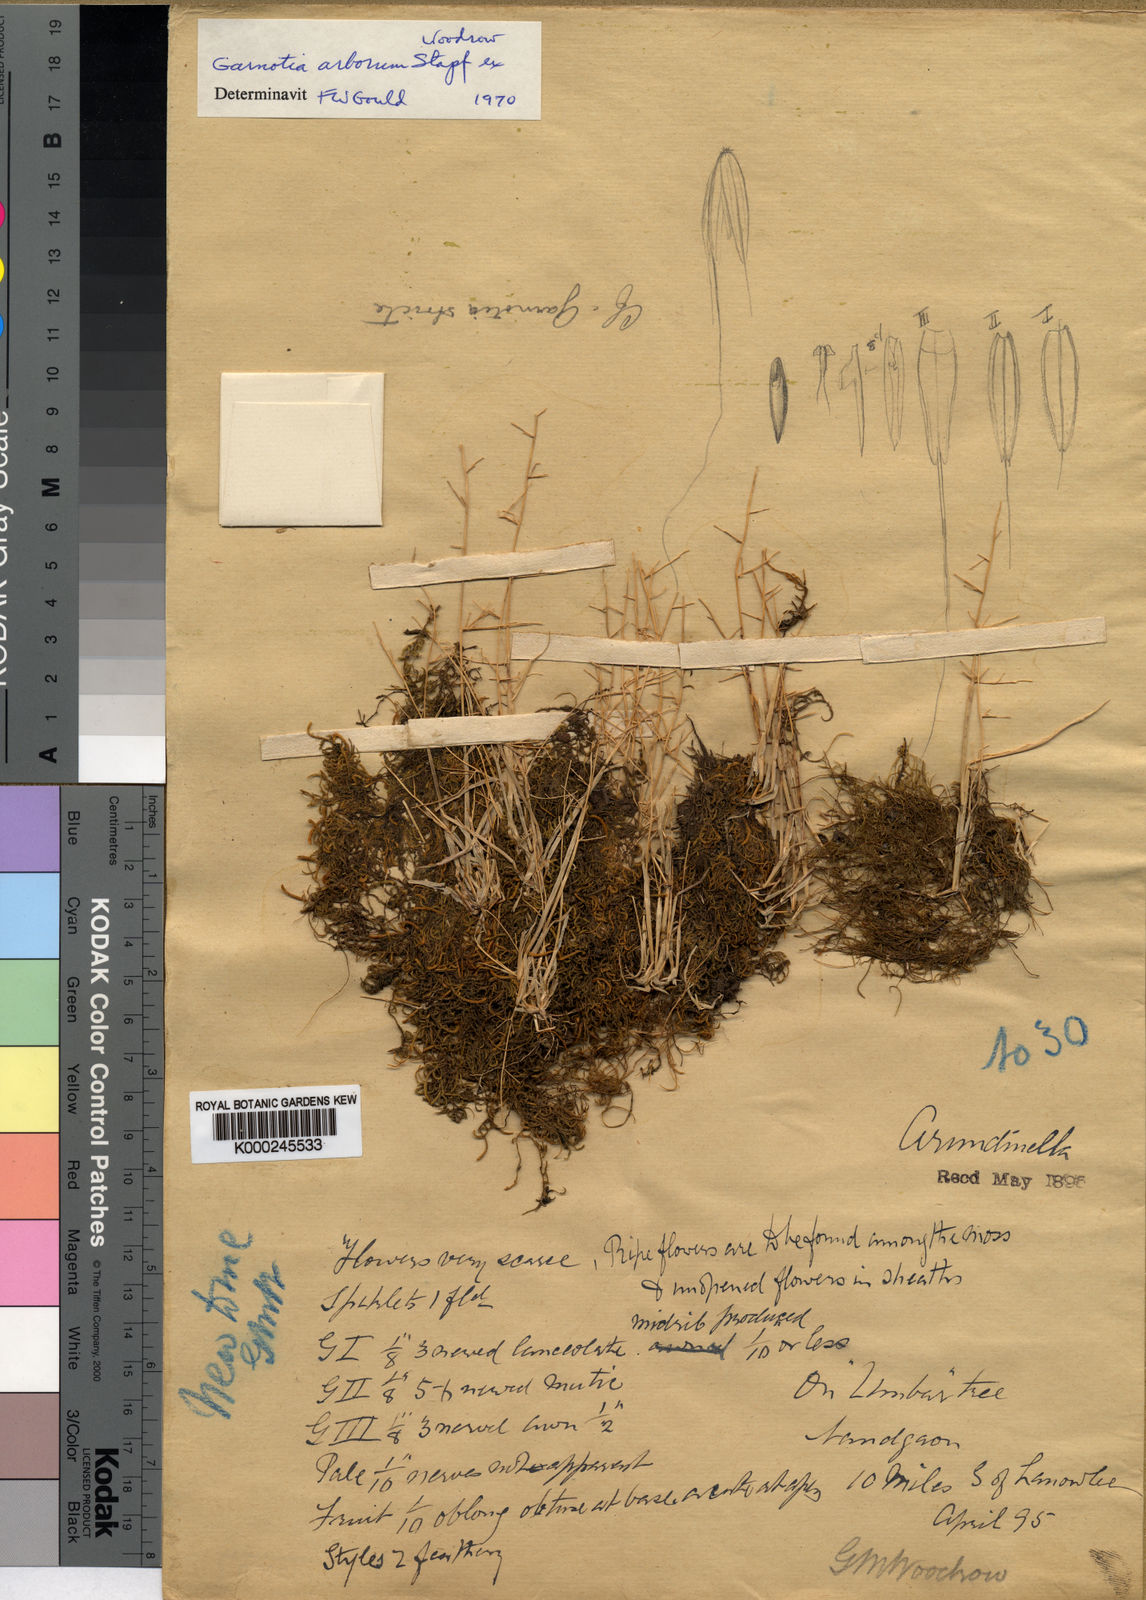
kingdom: Plantae
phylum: Tracheophyta
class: Liliopsida
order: Poales
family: Poaceae
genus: Garnotia
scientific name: Garnotia arborum
